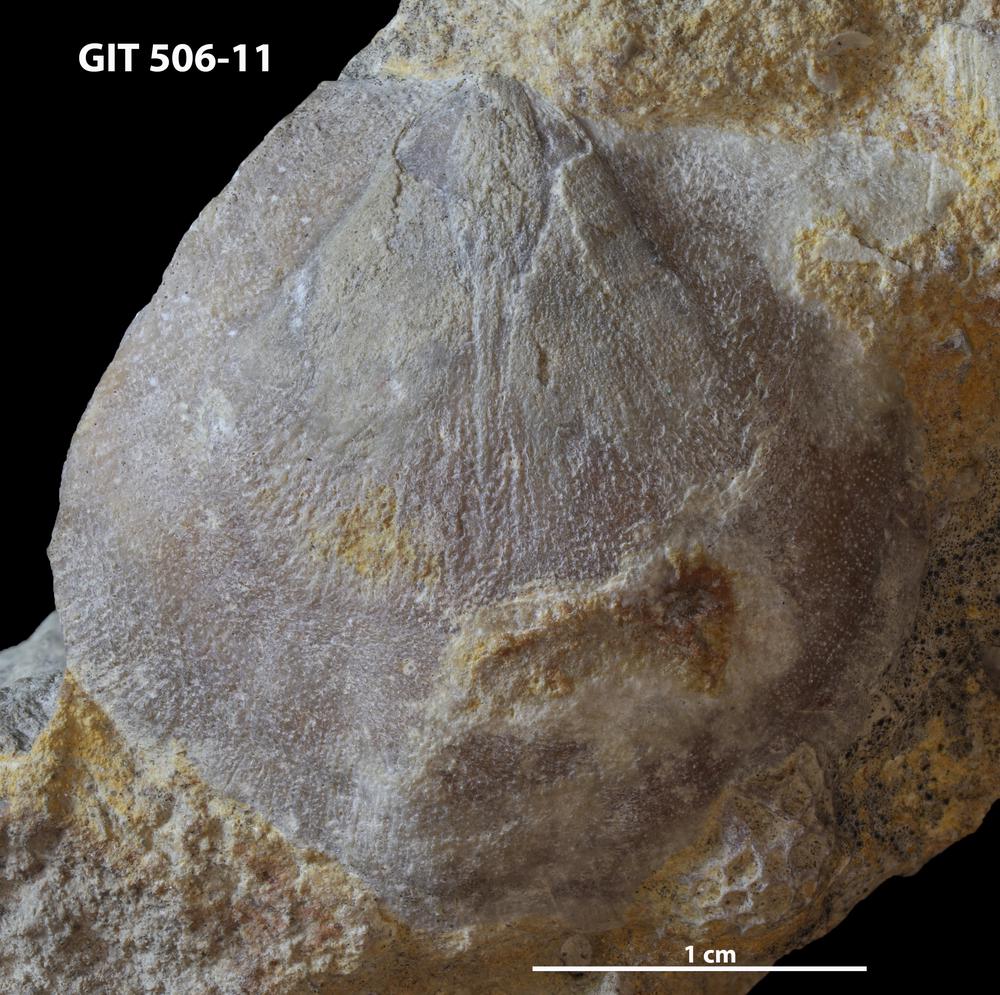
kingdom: Animalia
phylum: Brachiopoda
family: Stropheodontidae
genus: Strophodonta
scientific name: Strophodonta Brachyprion semiglobosa
